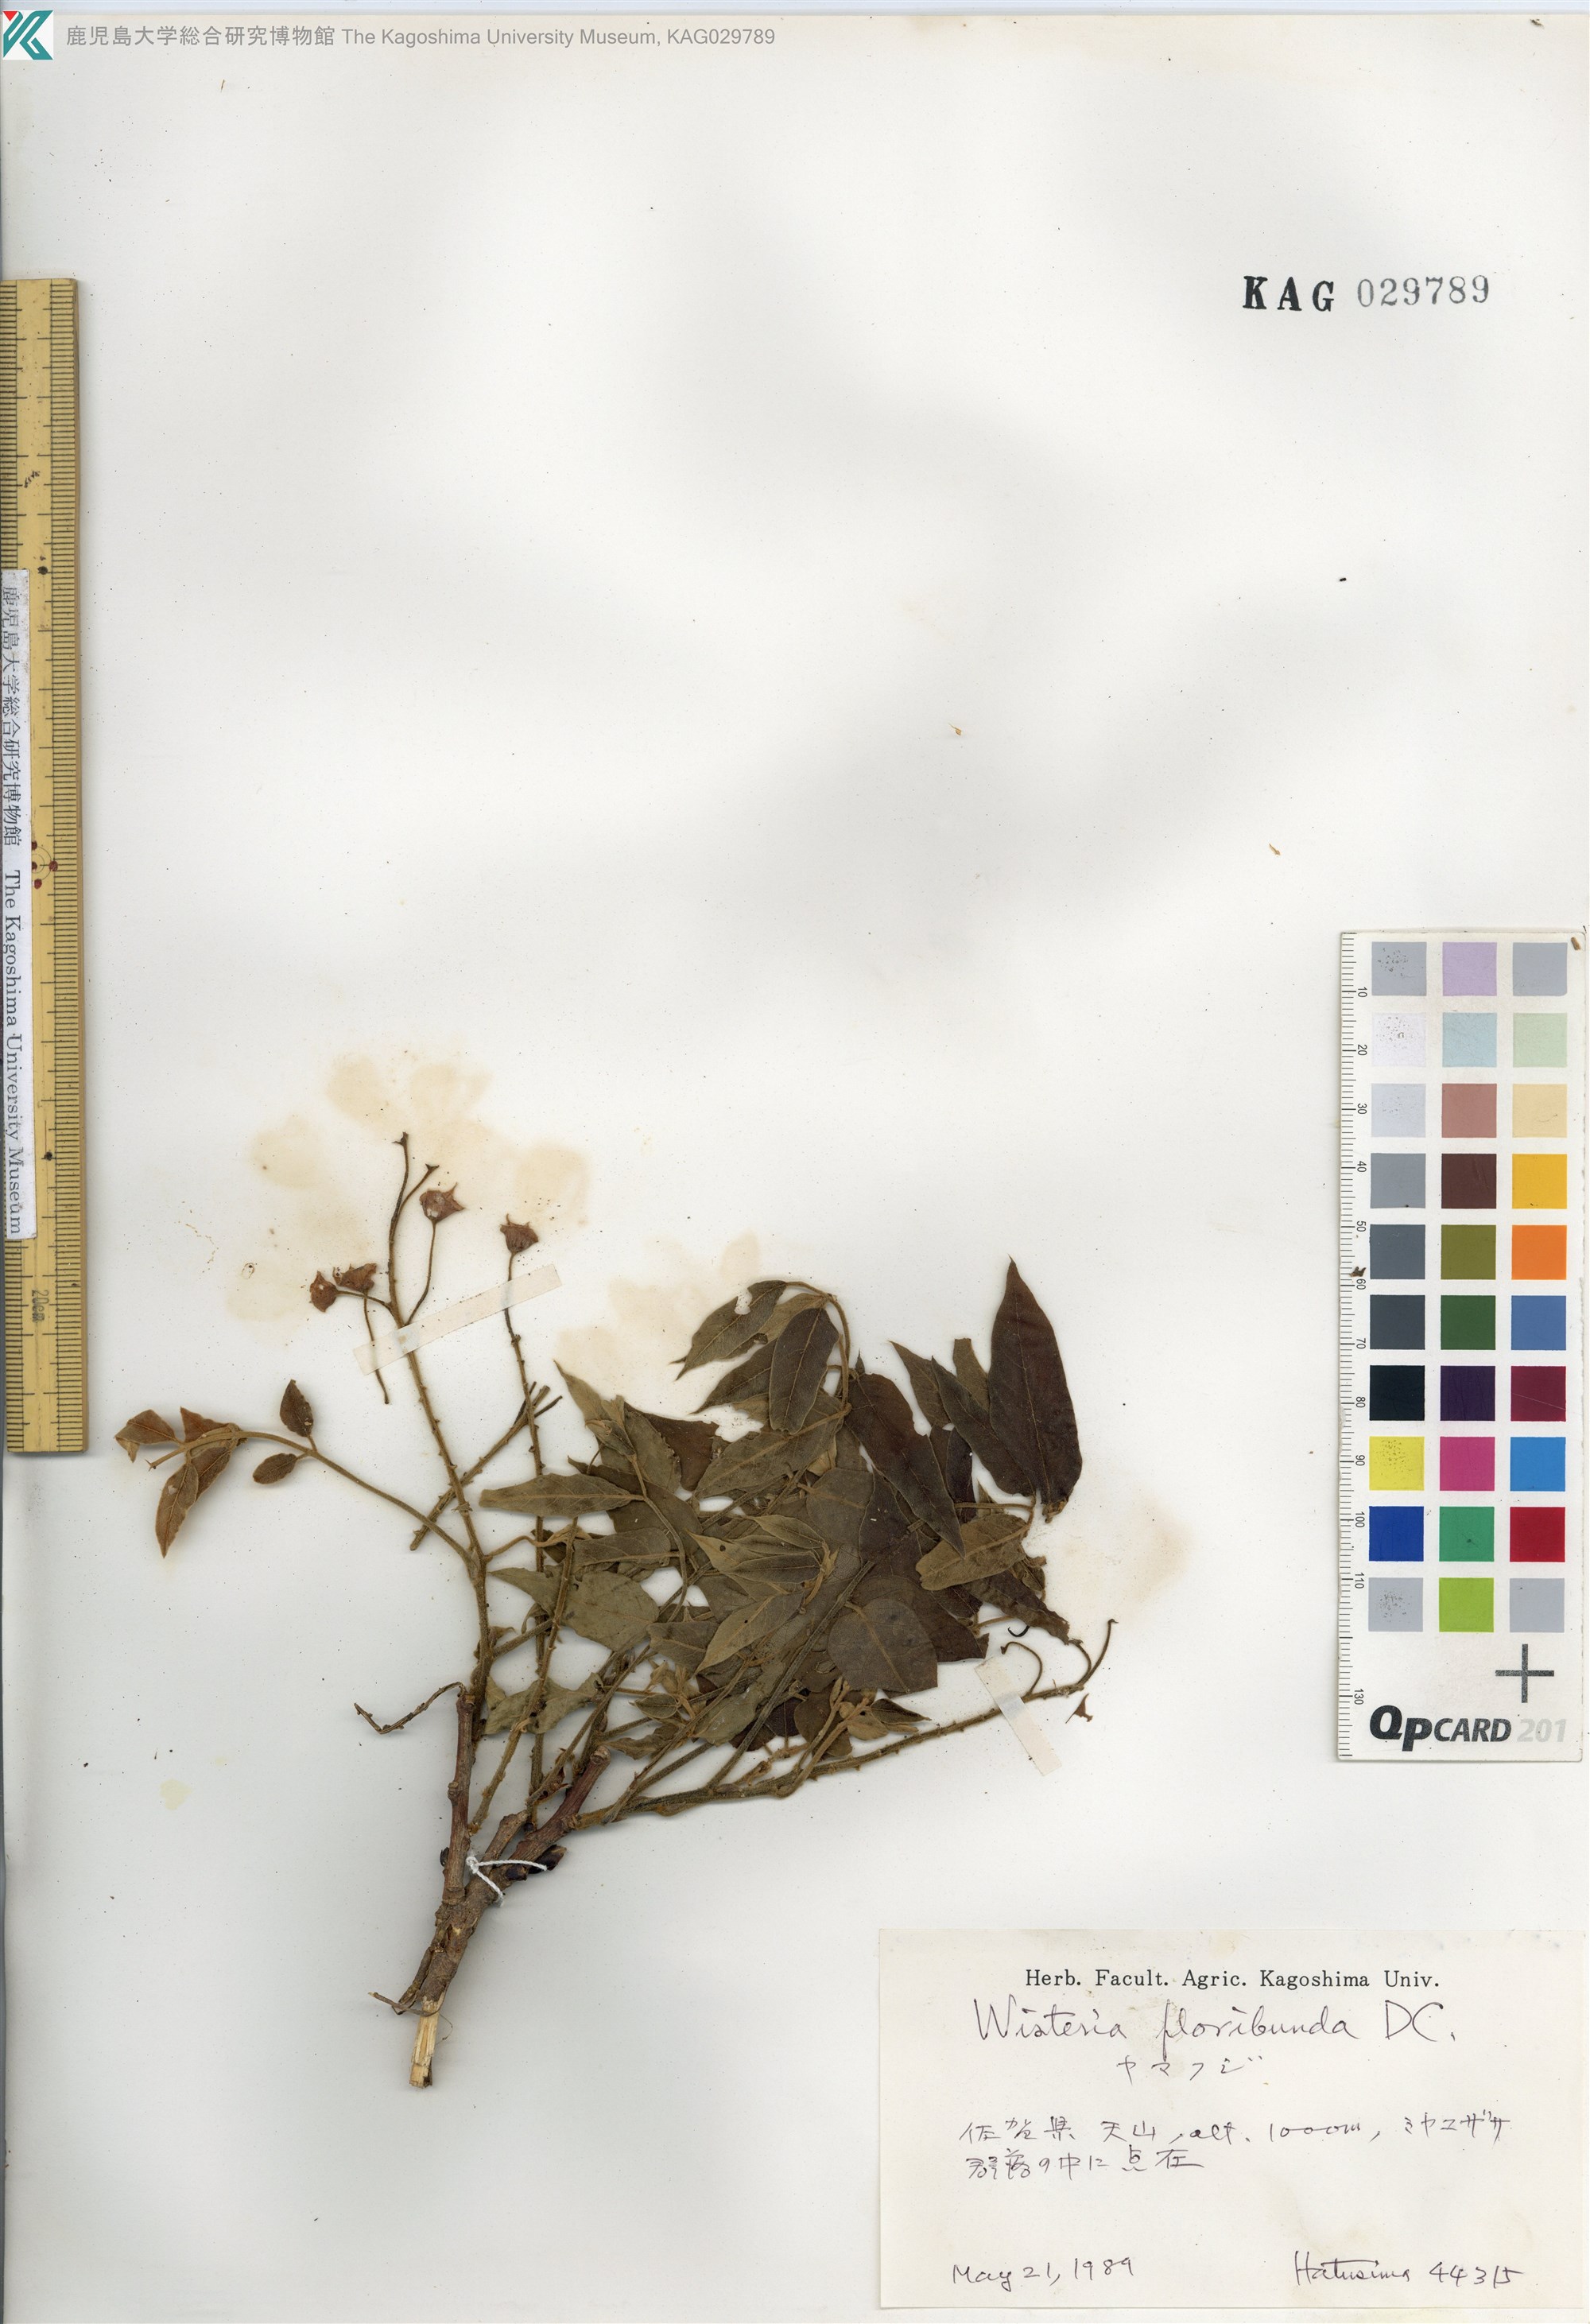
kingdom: Plantae
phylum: Tracheophyta
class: Magnoliopsida
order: Fabales
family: Fabaceae
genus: Wisteria
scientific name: Wisteria brachybotrys
